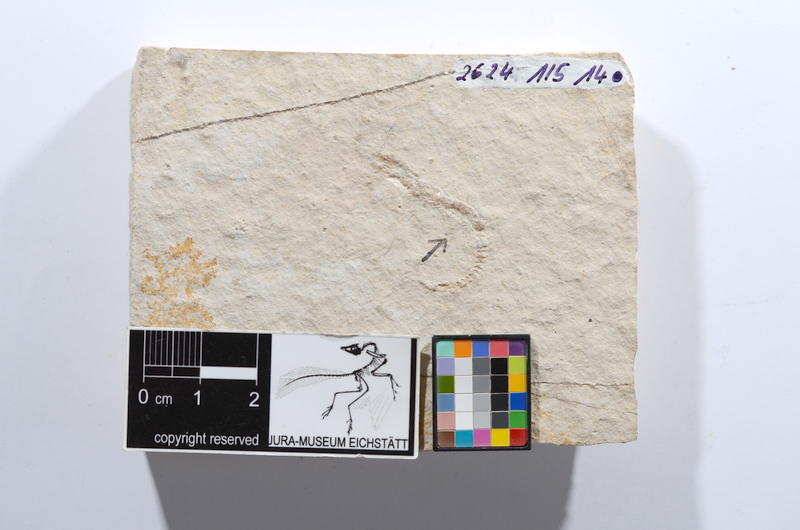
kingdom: Animalia
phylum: Chordata
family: Ascalaboidae
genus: Tharsis
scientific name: Tharsis dubius
